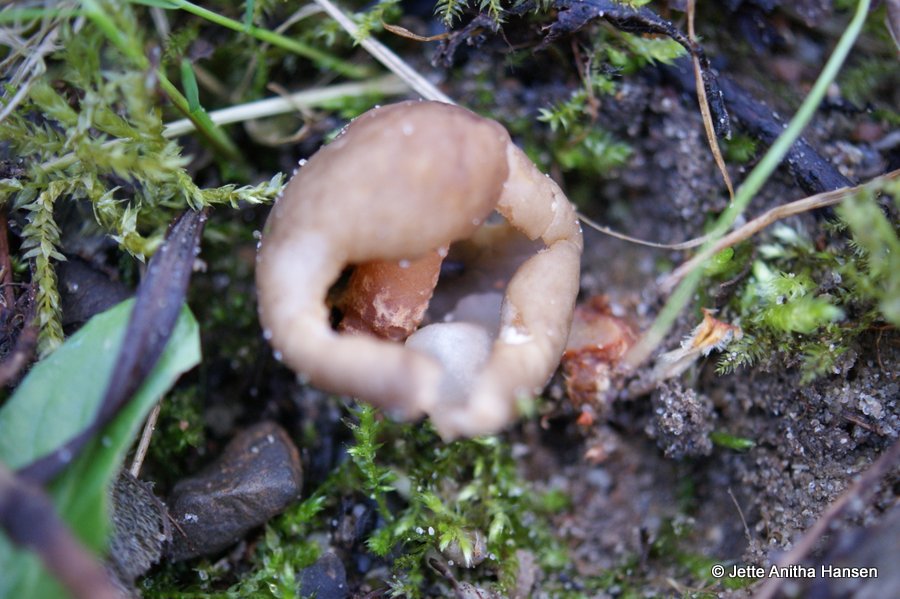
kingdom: Fungi
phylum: Ascomycota
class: Pezizomycetes
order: Pezizales
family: Morchellaceae
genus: Verpa
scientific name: Verpa conica
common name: glat klokkemorkel
